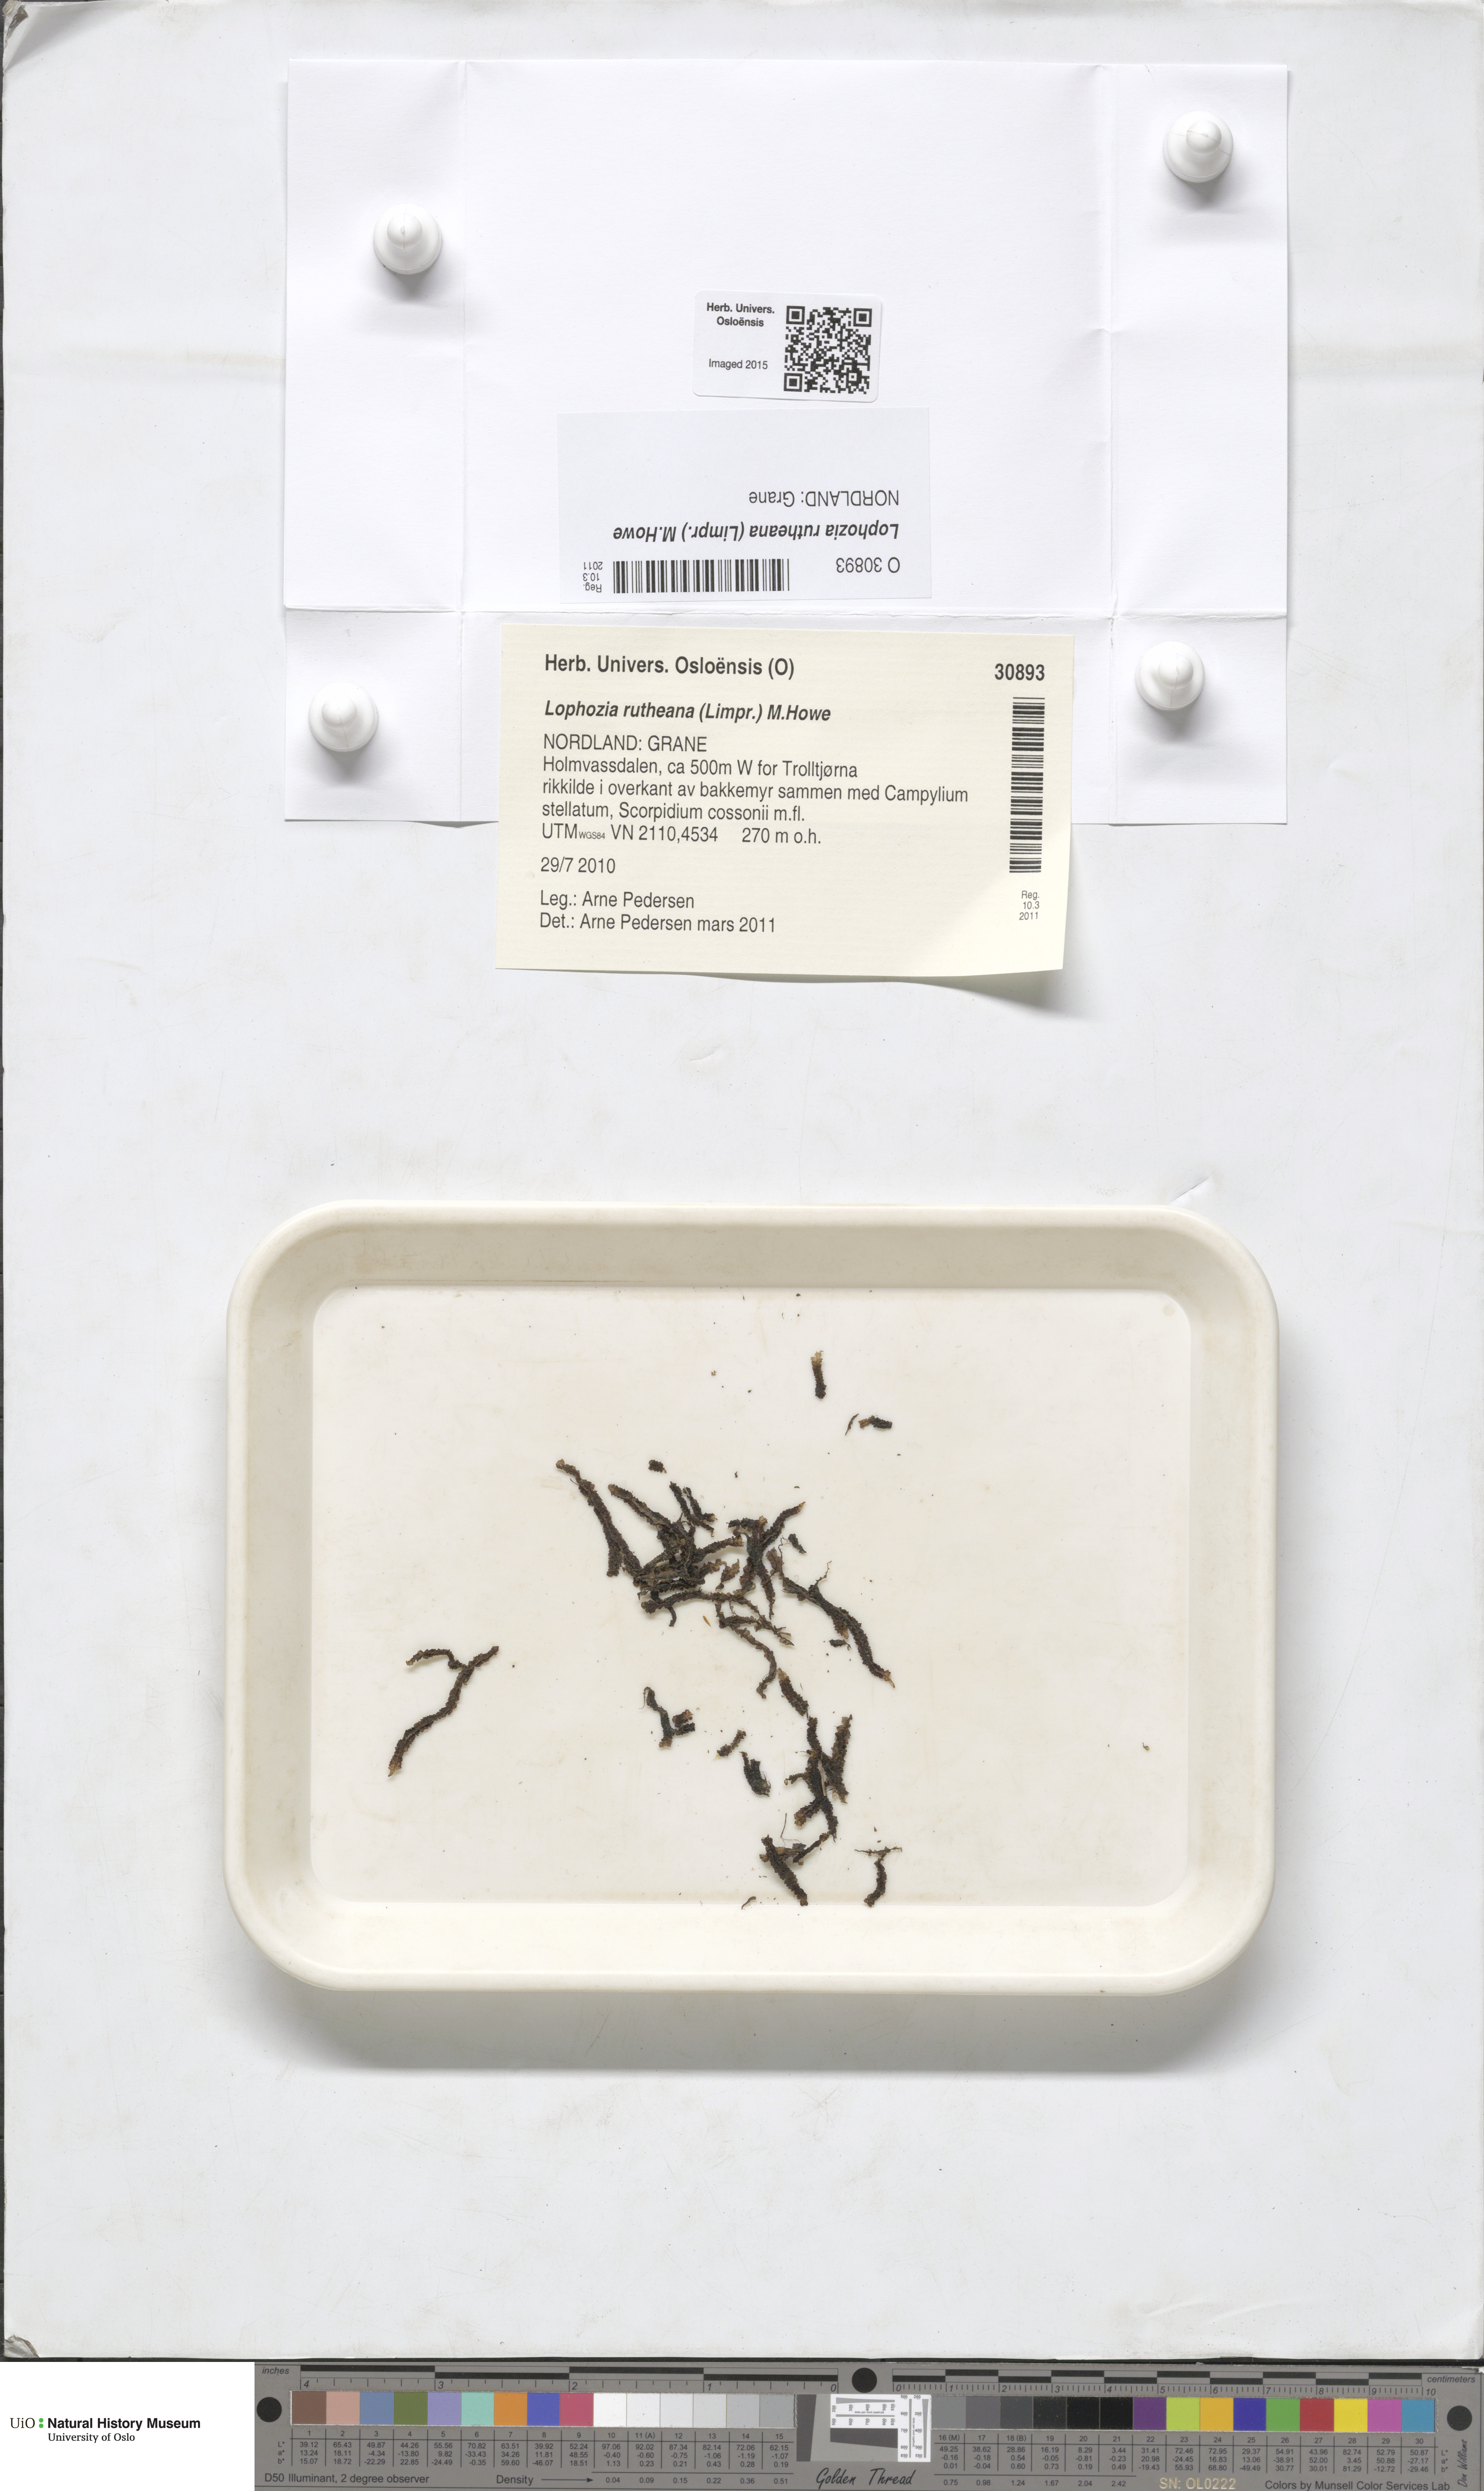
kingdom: Plantae
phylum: Marchantiophyta
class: Jungermanniopsida
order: Jungermanniales
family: Jungermanniaceae
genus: Mesoptychia
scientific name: Mesoptychia rutheana
